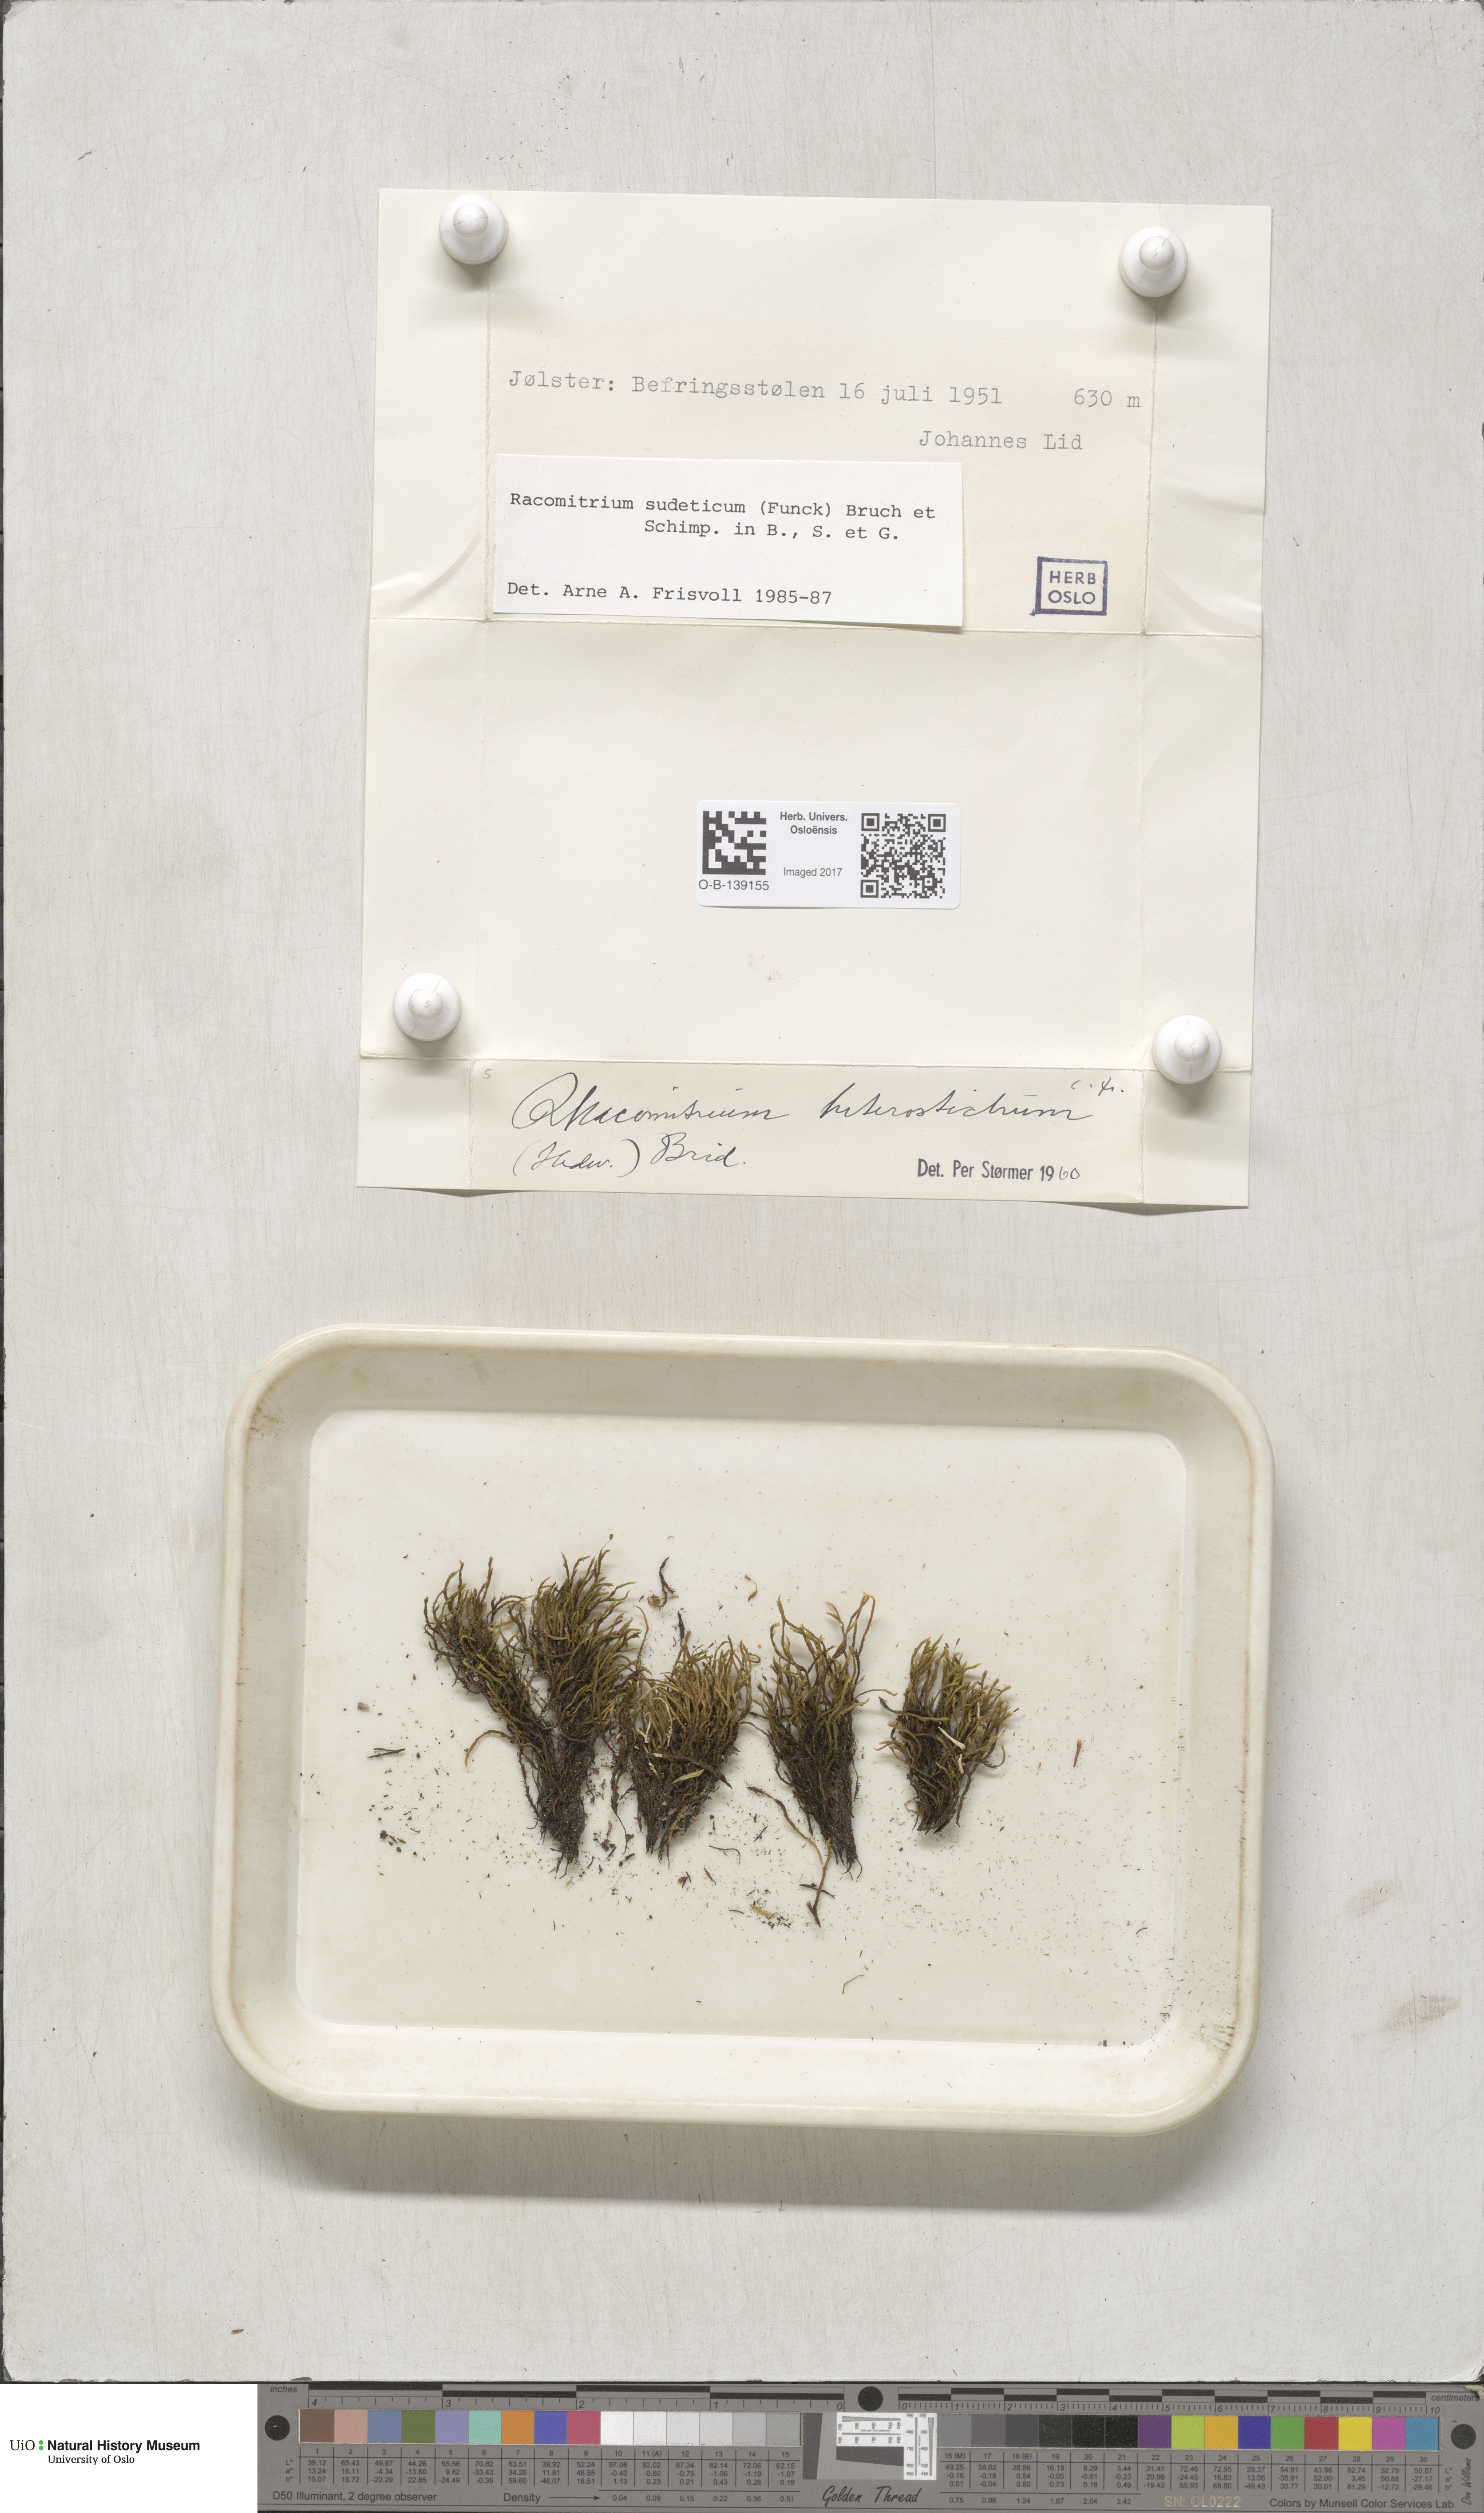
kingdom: Plantae
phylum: Bryophyta
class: Bryopsida
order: Grimmiales
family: Grimmiaceae
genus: Bucklandiella
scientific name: Bucklandiella sudetica
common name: Slender fringe-moss
